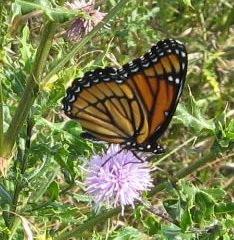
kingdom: Animalia
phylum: Arthropoda
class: Insecta
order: Lepidoptera
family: Nymphalidae
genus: Limenitis
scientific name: Limenitis archippus
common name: Viceroy
